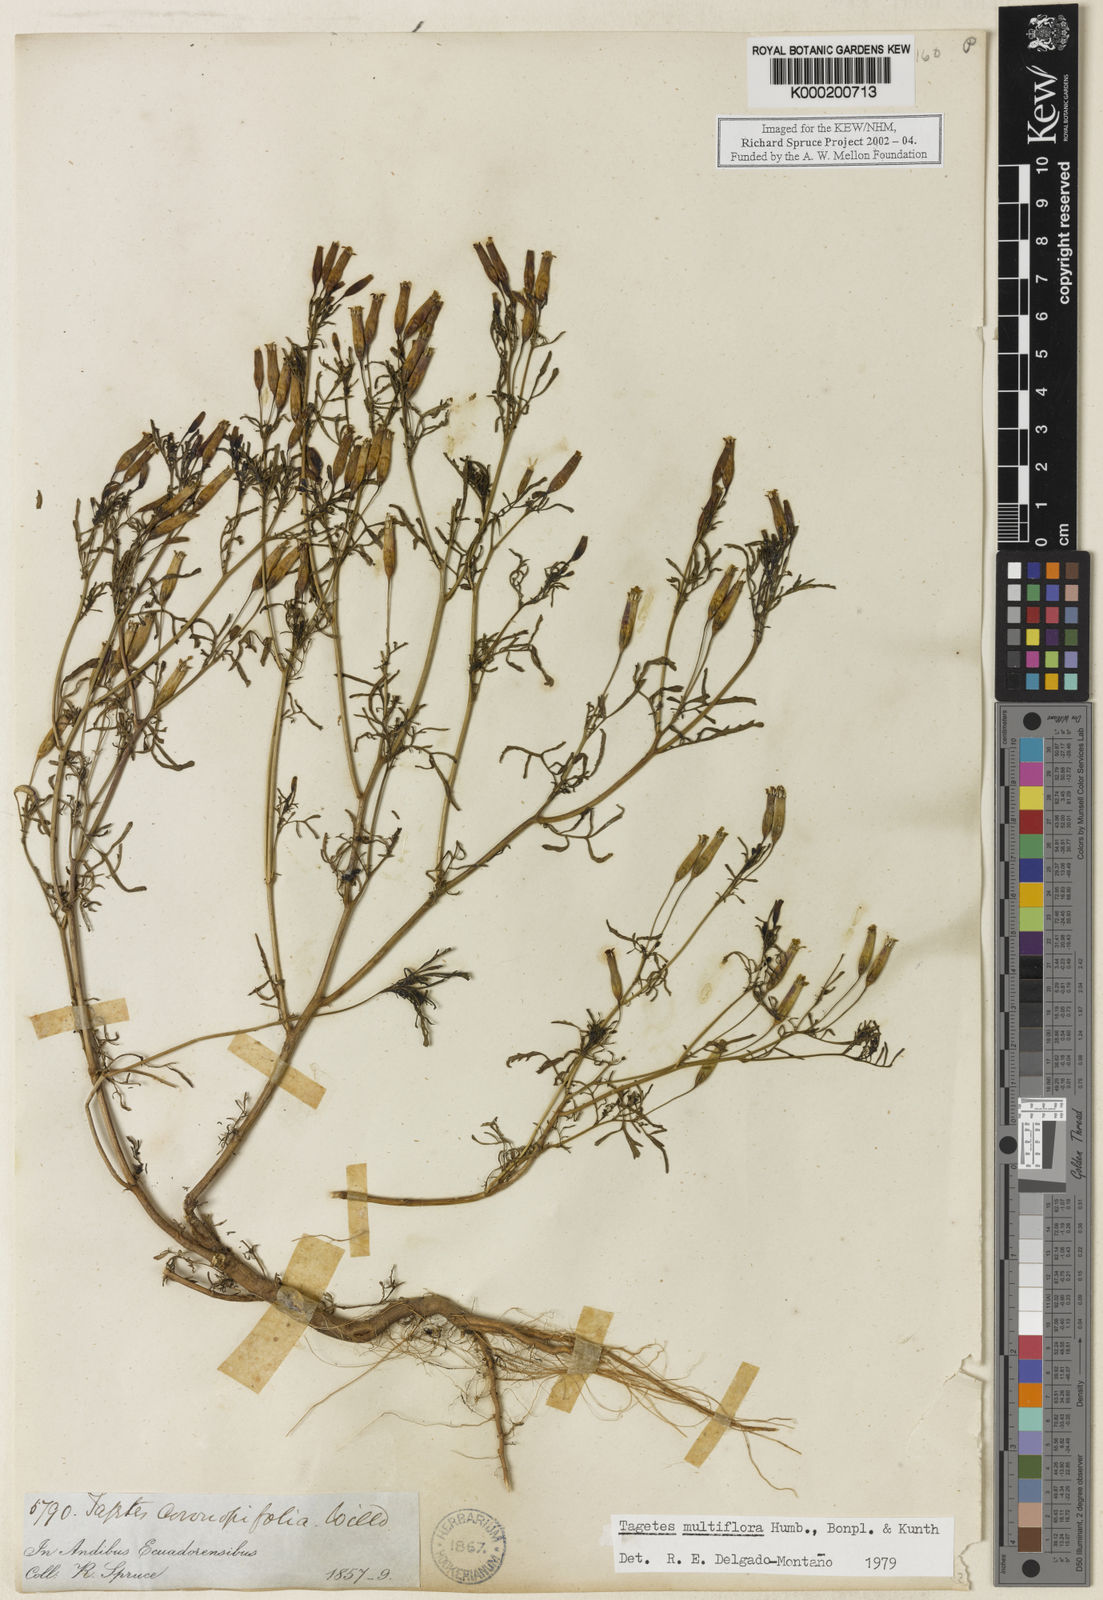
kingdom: Plantae
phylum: Tracheophyta
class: Magnoliopsida
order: Asterales
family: Asteraceae
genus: Tagetes
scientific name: Tagetes
